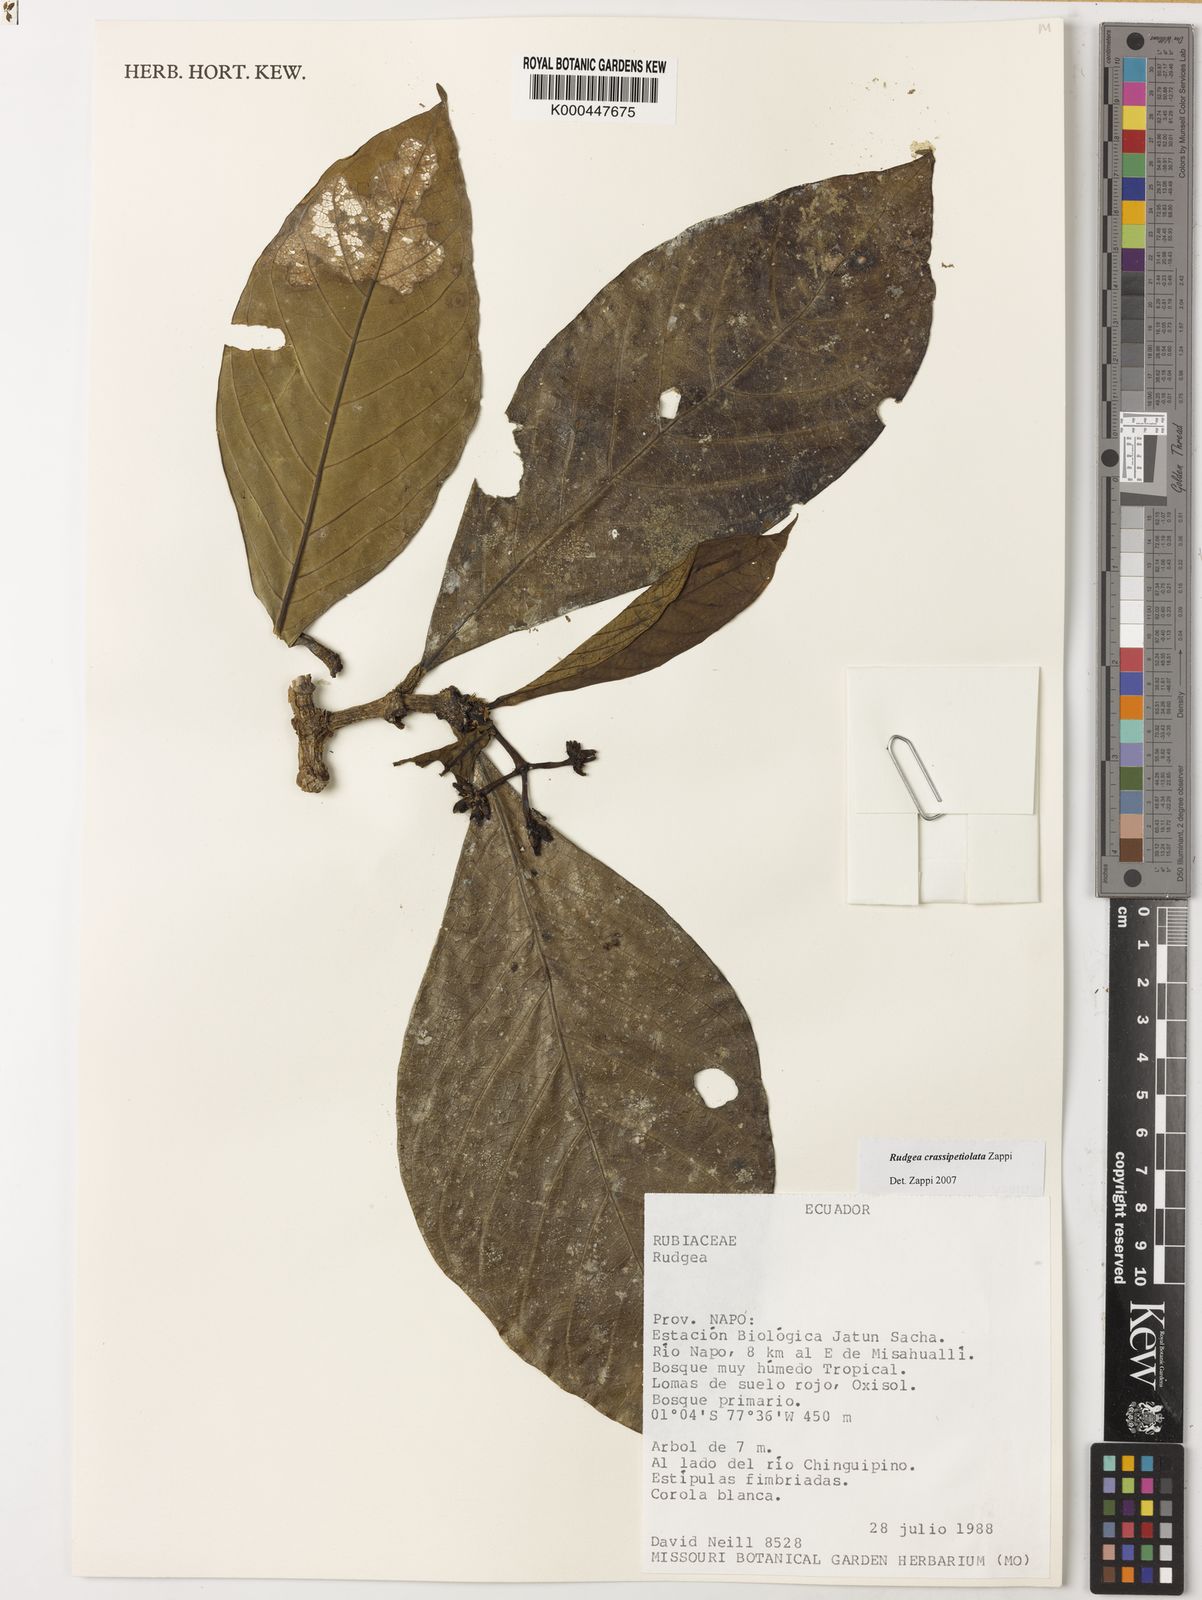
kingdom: Plantae
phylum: Tracheophyta
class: Magnoliopsida
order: Gentianales
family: Rubiaceae
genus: Rudgea
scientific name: Rudgea crassipetiolata
